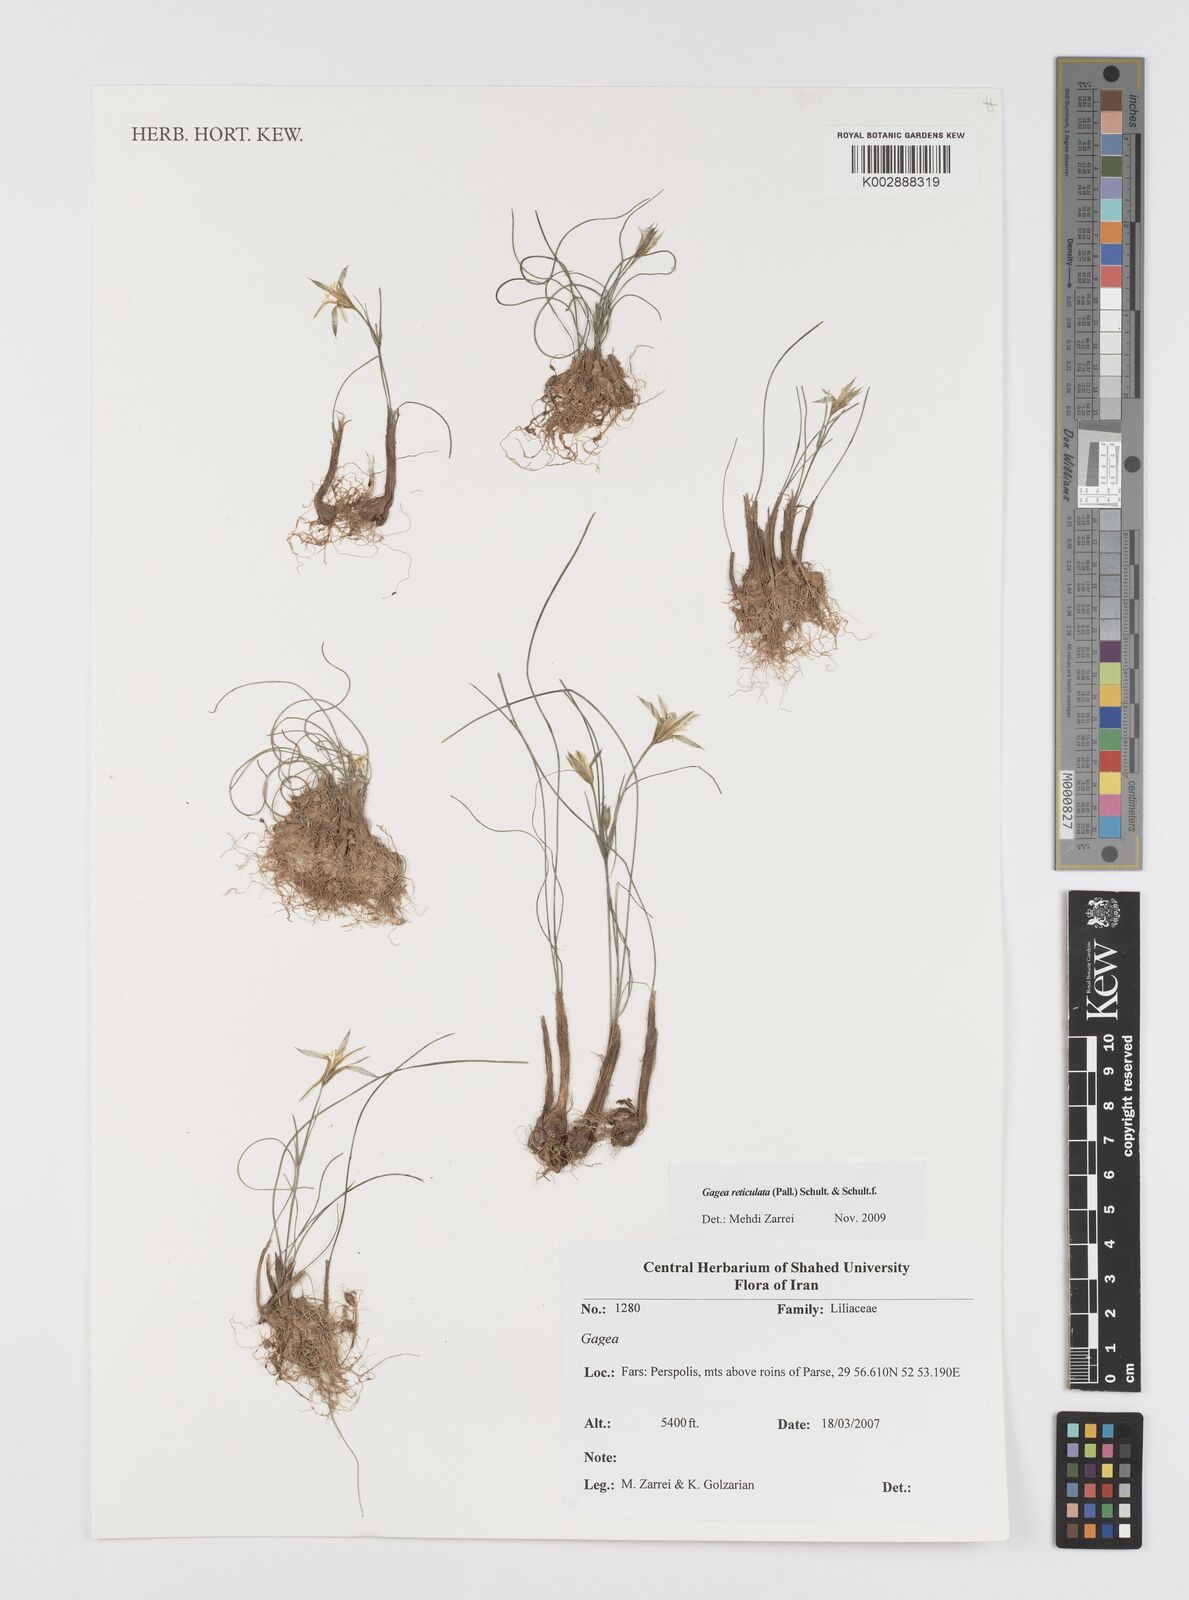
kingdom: Plantae
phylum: Tracheophyta
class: Liliopsida
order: Liliales
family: Liliaceae
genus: Gagea
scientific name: Gagea reticulata
